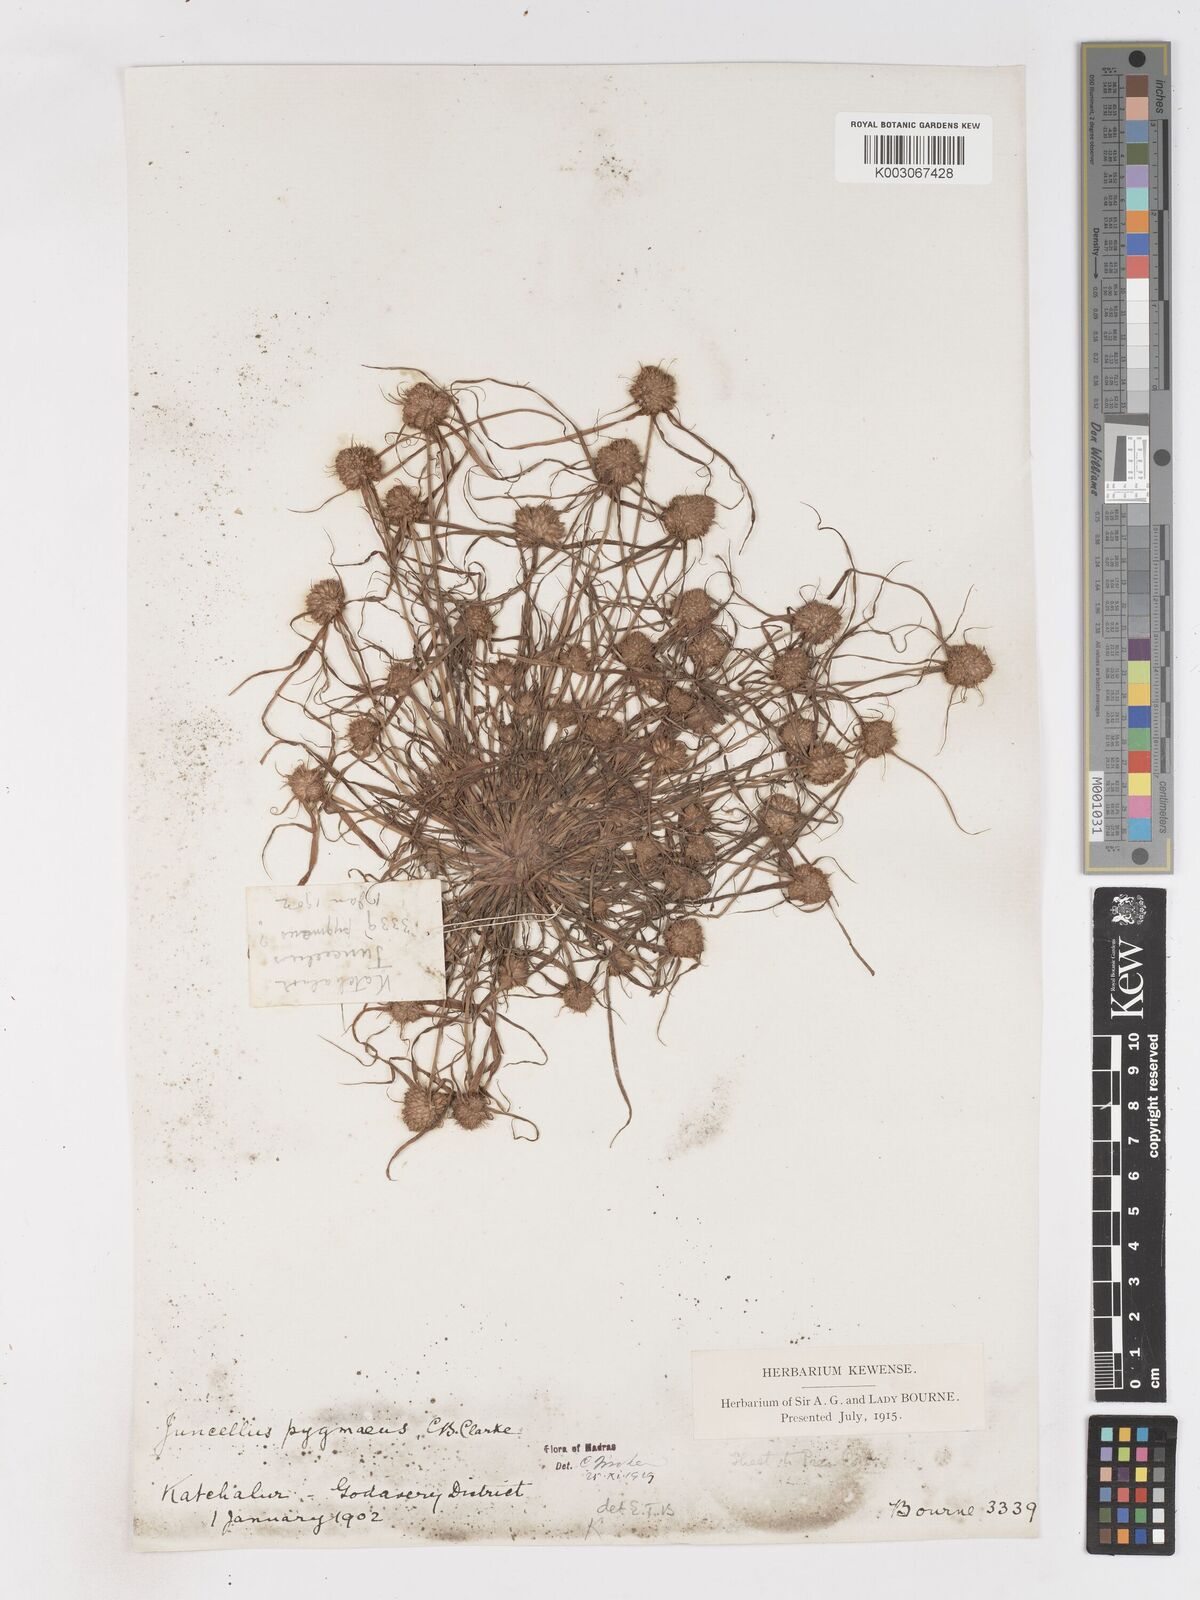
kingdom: Plantae
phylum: Tracheophyta
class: Liliopsida
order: Poales
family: Cyperaceae
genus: Cyperus
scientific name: Cyperus michelianus
